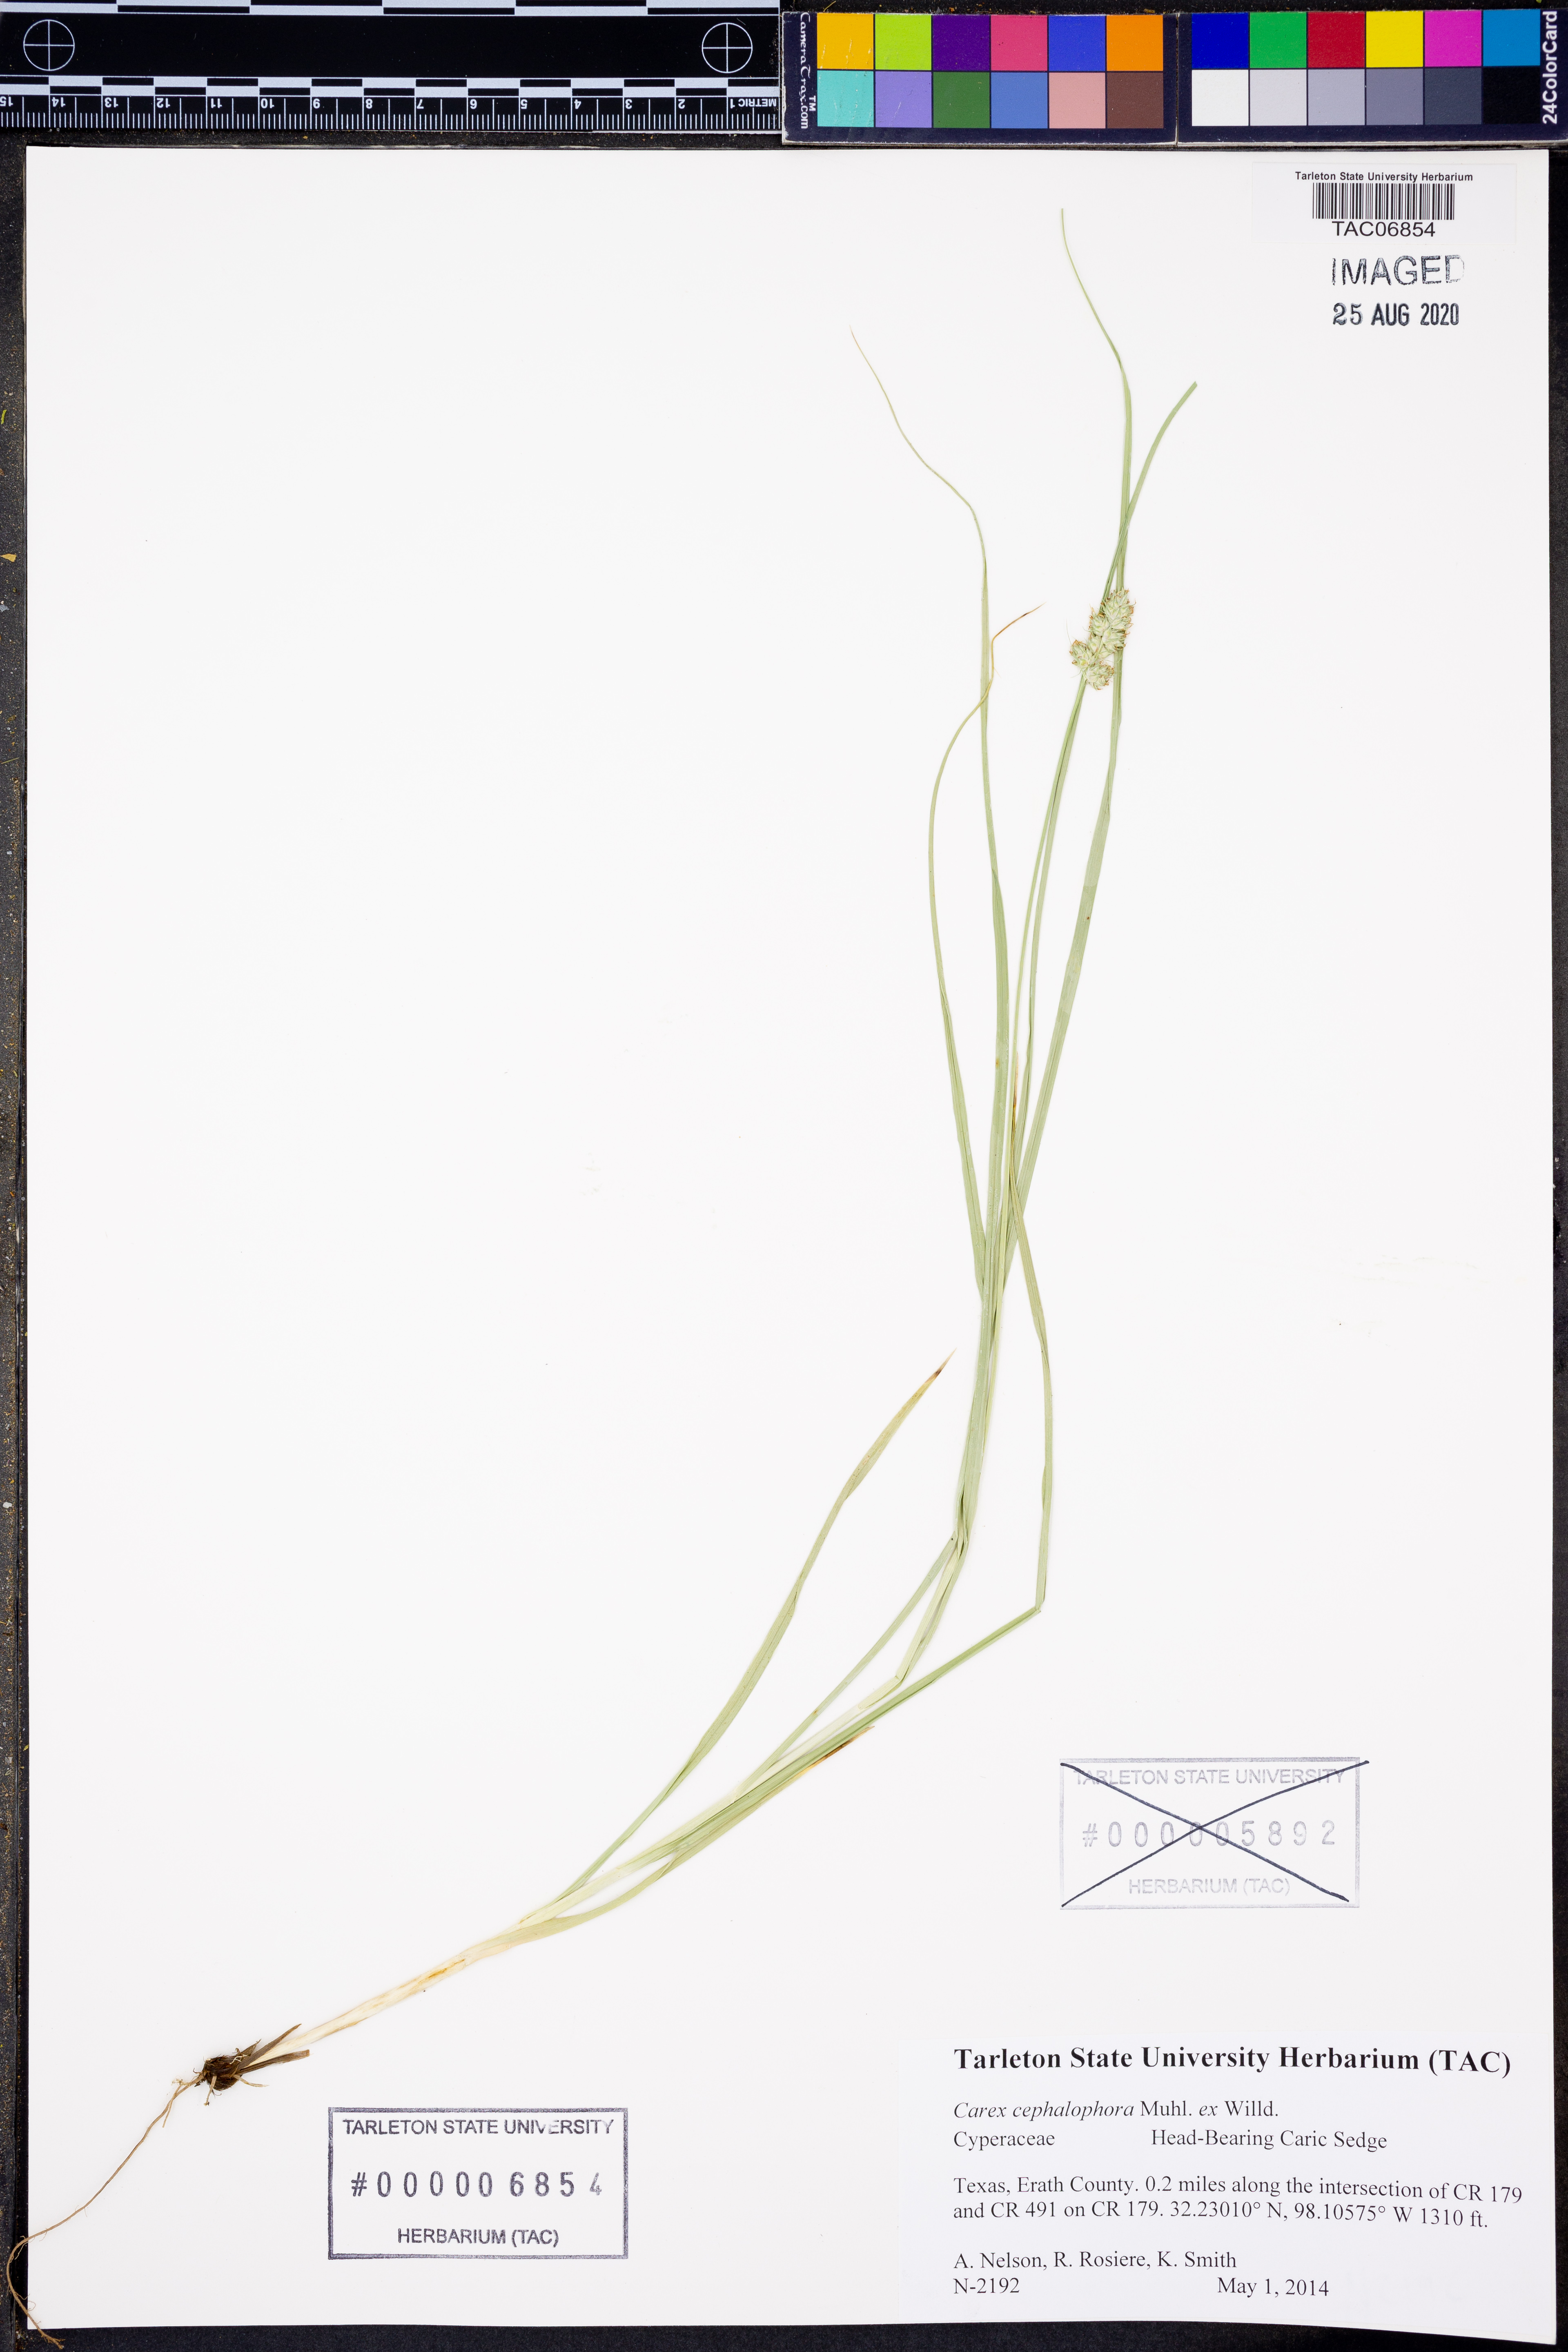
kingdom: Plantae
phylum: Tracheophyta
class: Liliopsida
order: Poales
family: Cyperaceae
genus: Carex
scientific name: Carex cephalophora
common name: Oval-headed sedge
